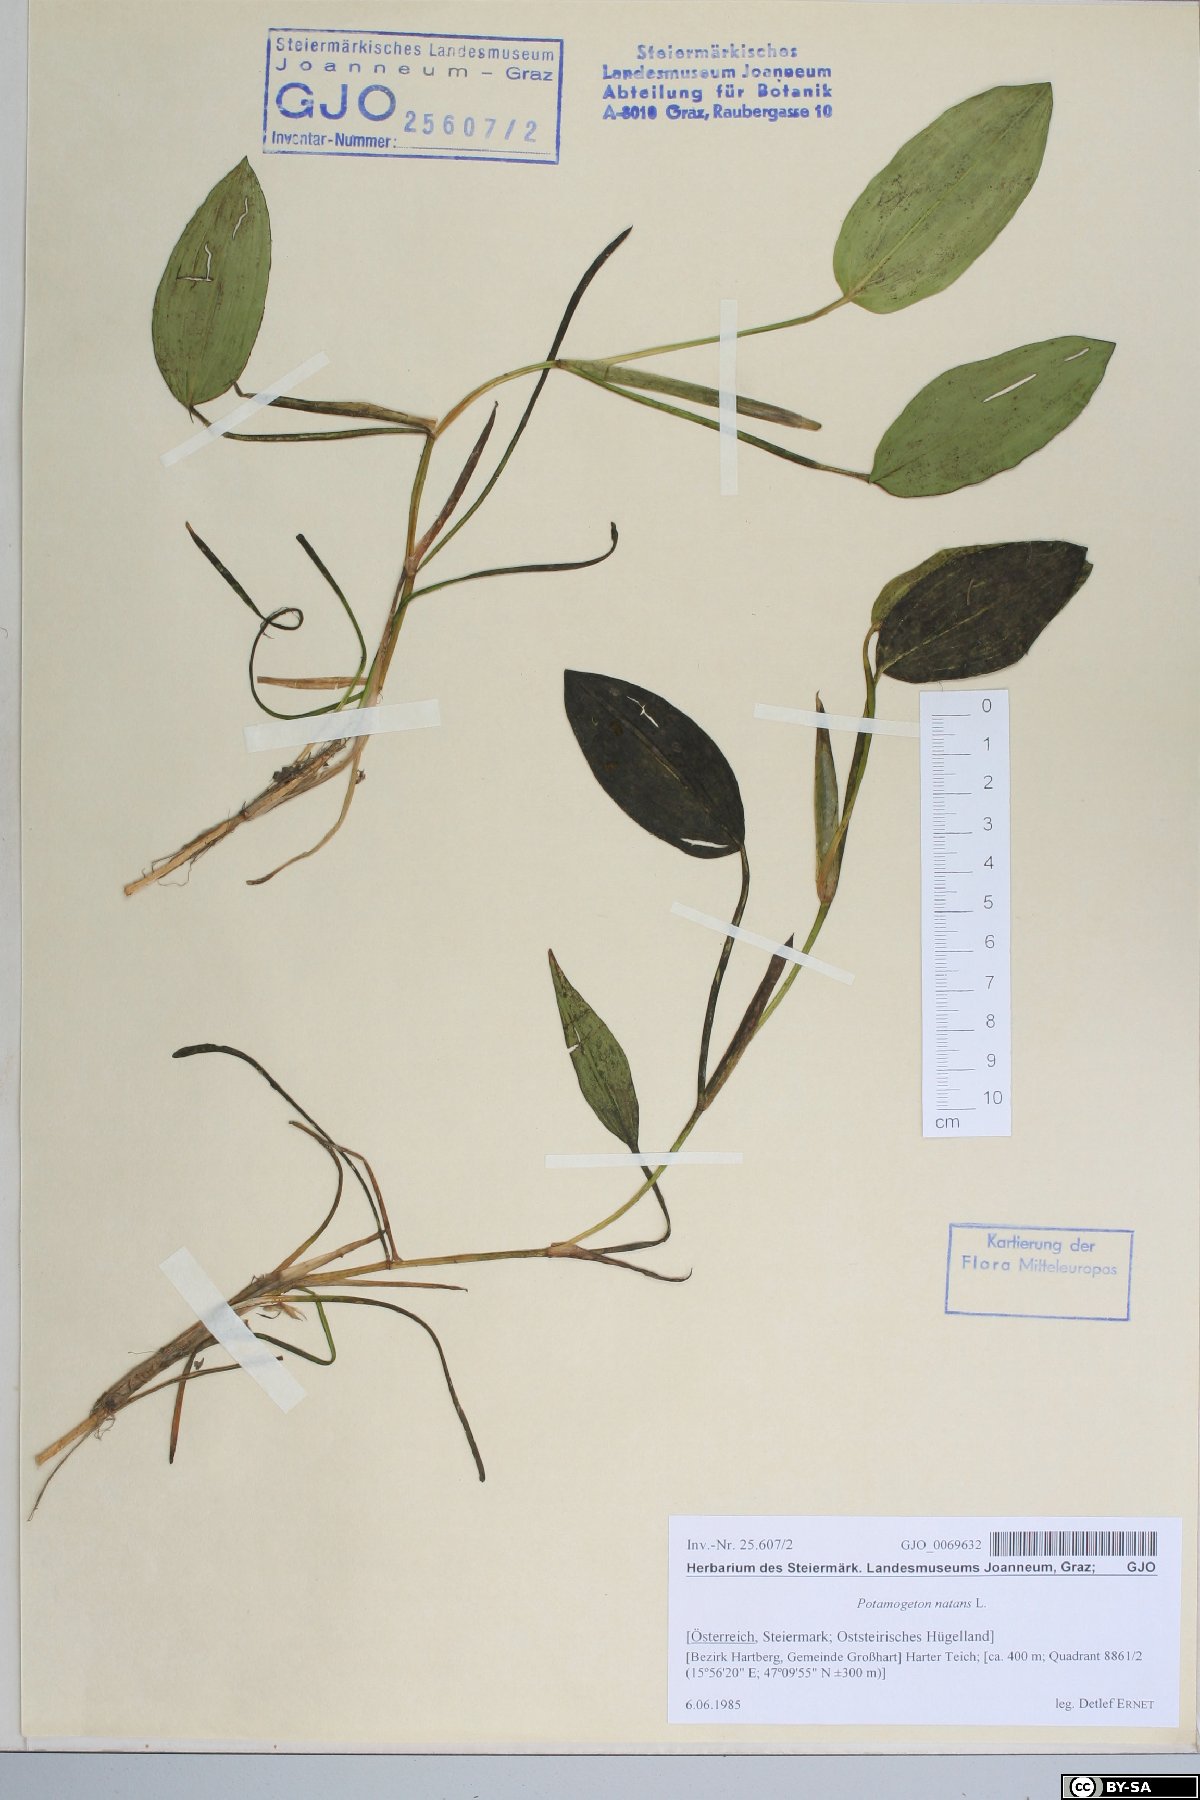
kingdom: Plantae
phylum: Tracheophyta
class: Liliopsida
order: Alismatales
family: Potamogetonaceae
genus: Potamogeton
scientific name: Potamogeton natans
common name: Broad-leaved pondweed
